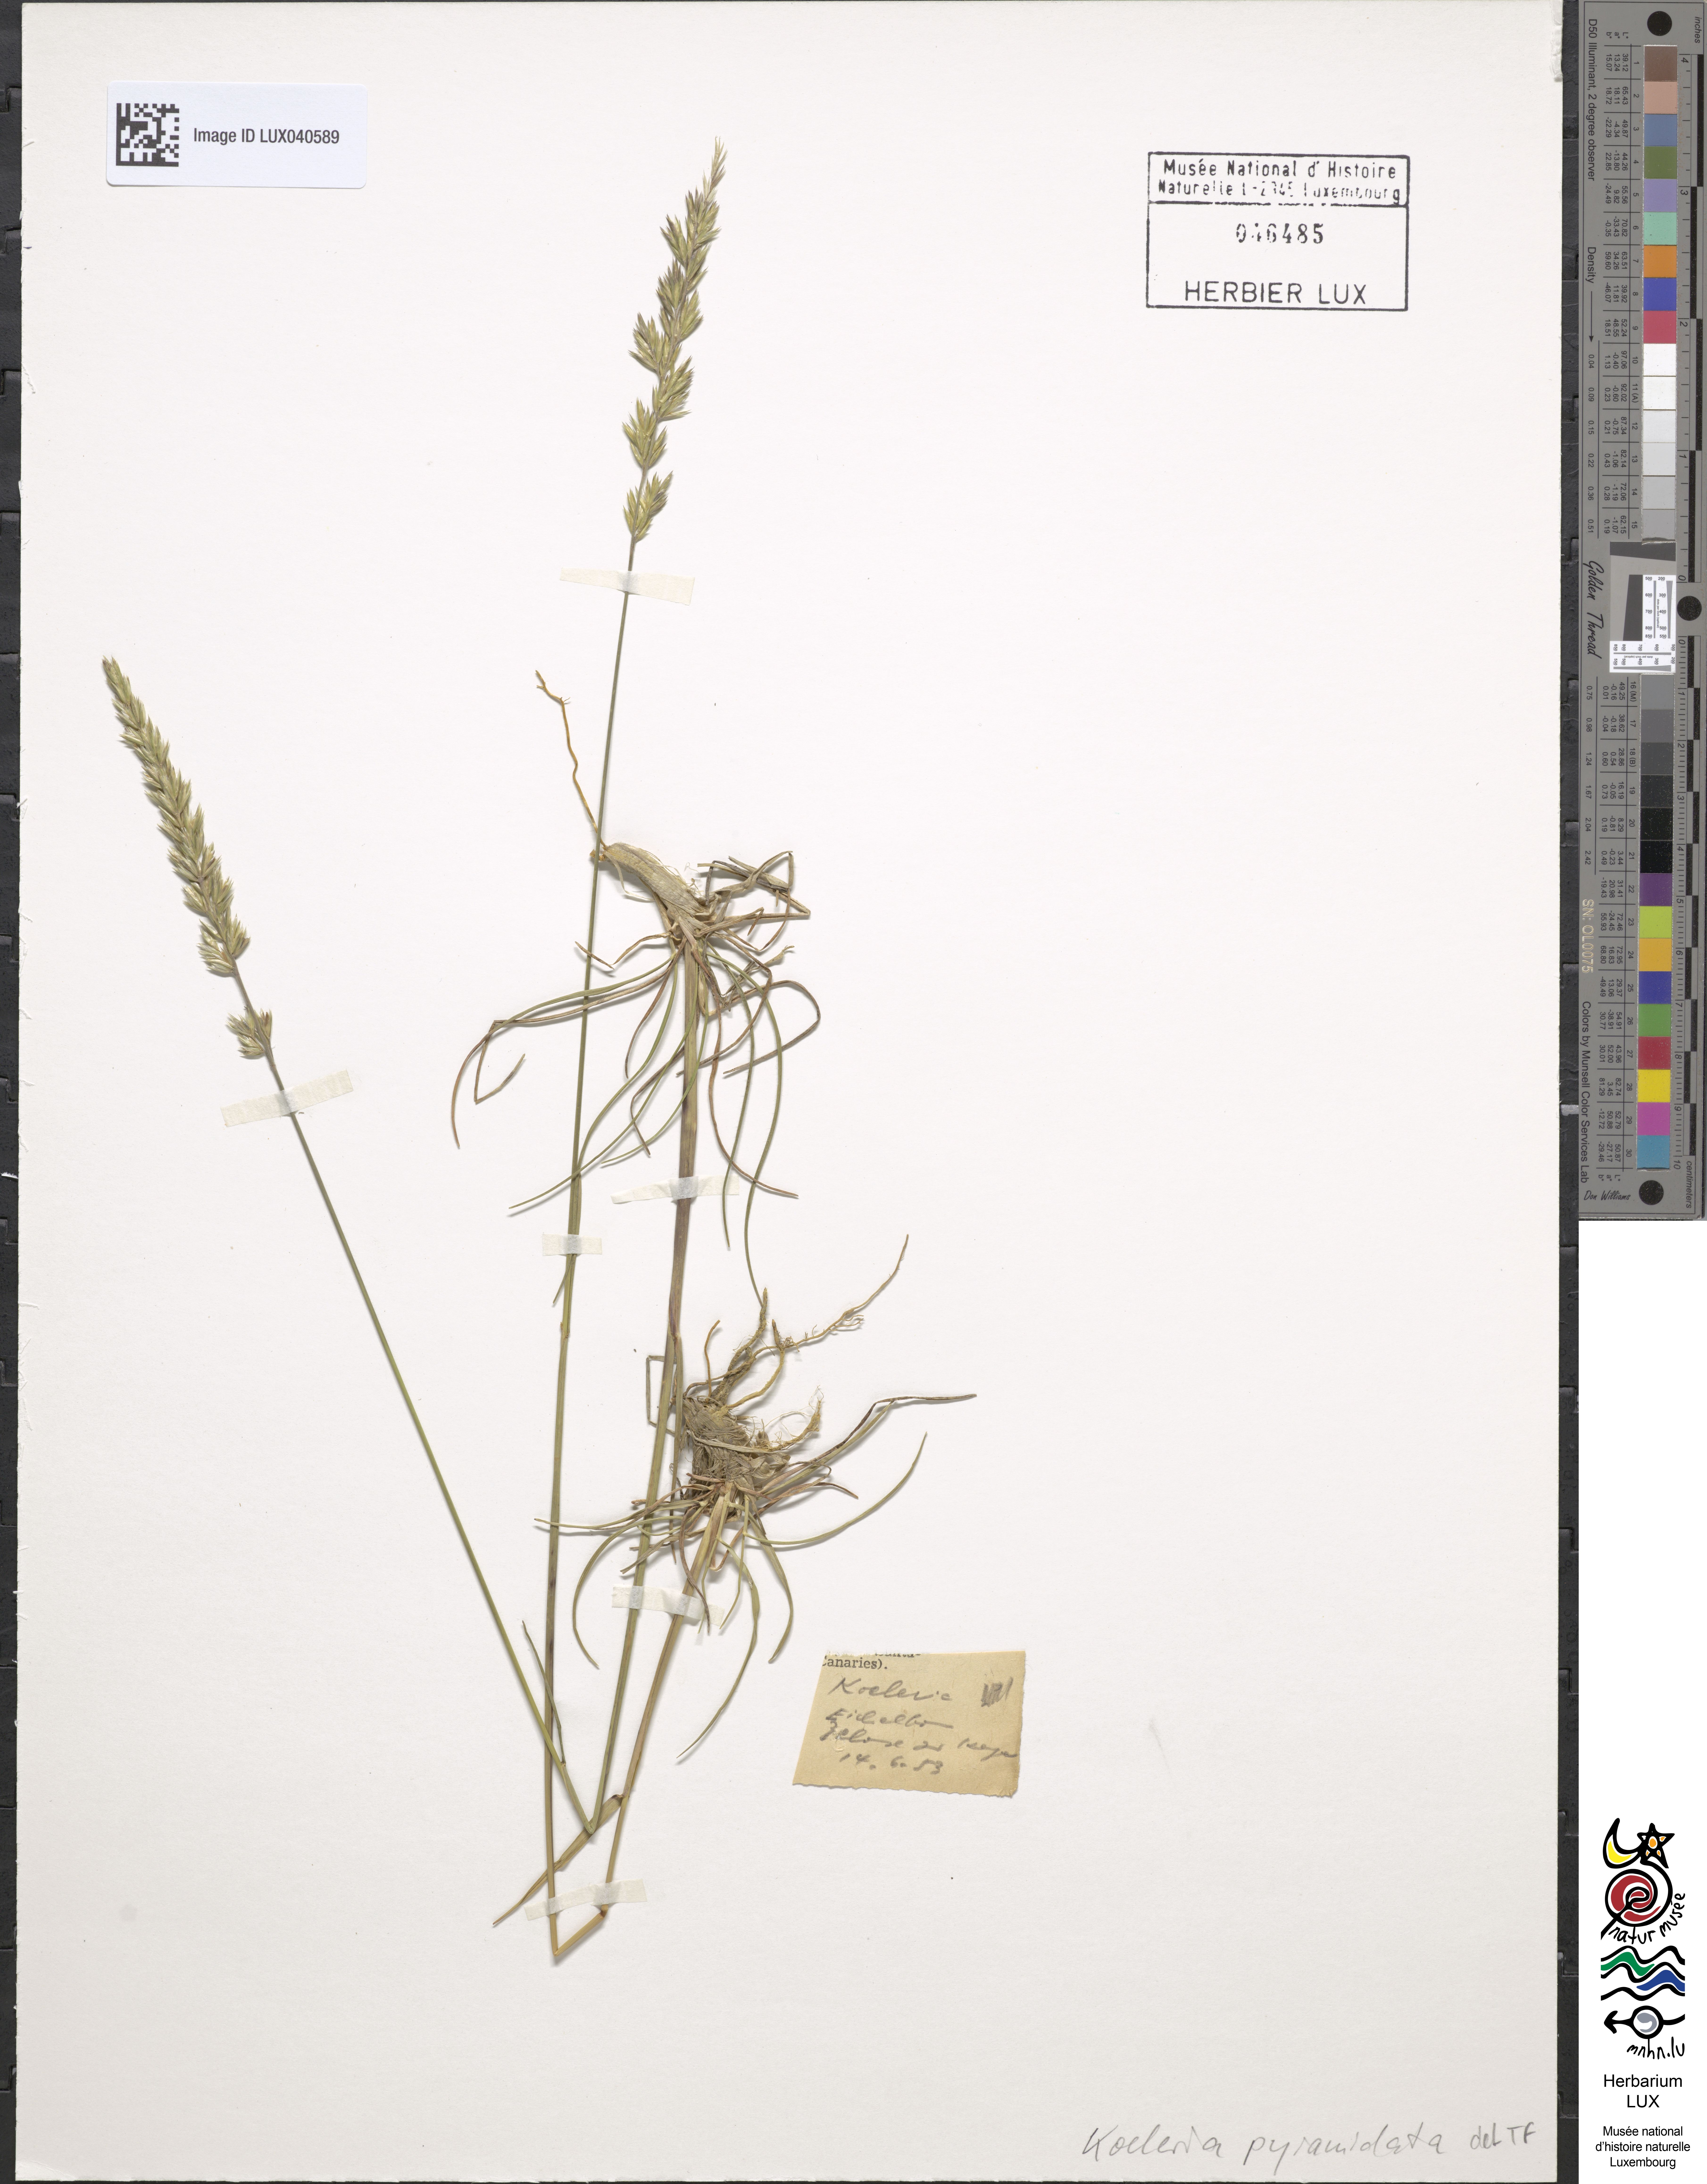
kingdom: Plantae
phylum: Tracheophyta
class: Liliopsida
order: Poales
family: Poaceae
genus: Koeleria
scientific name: Koeleria pyramidata
